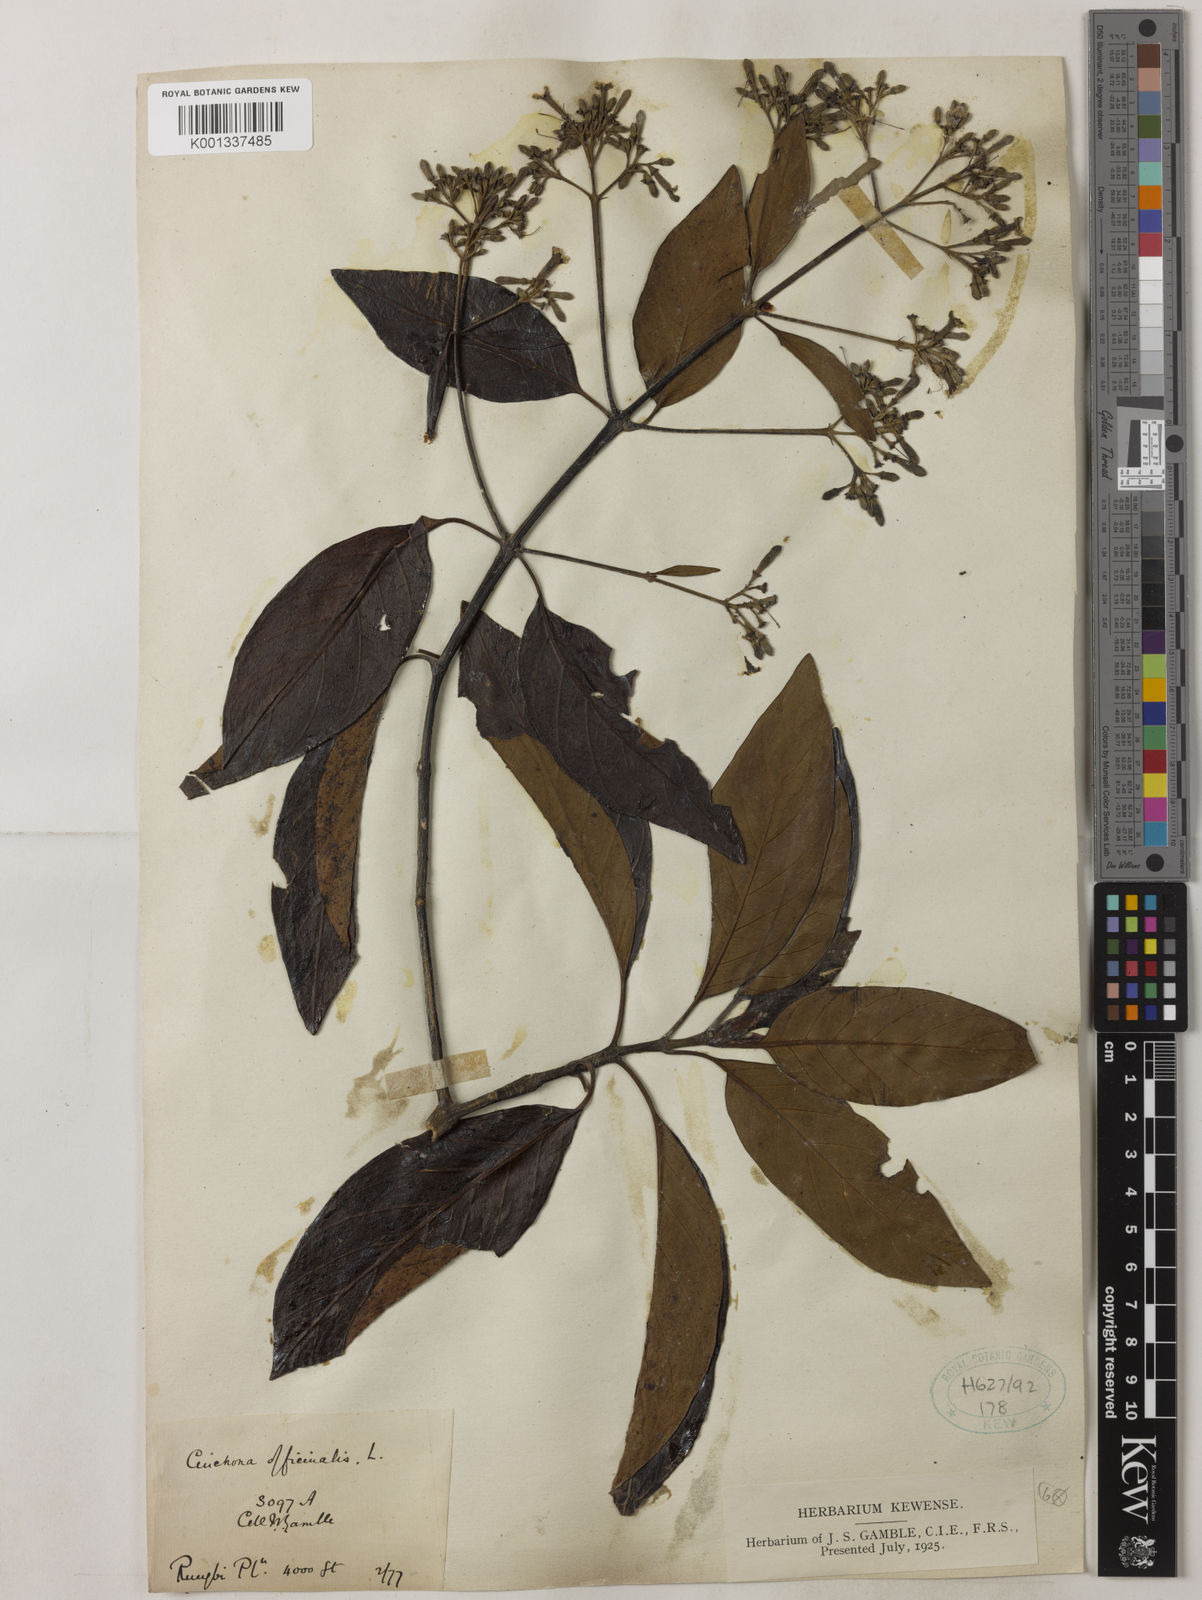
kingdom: Plantae
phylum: Tracheophyta
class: Magnoliopsida
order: Gentianales
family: Rubiaceae
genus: Cinchona
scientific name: Cinchona officinalis
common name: Lojabark
